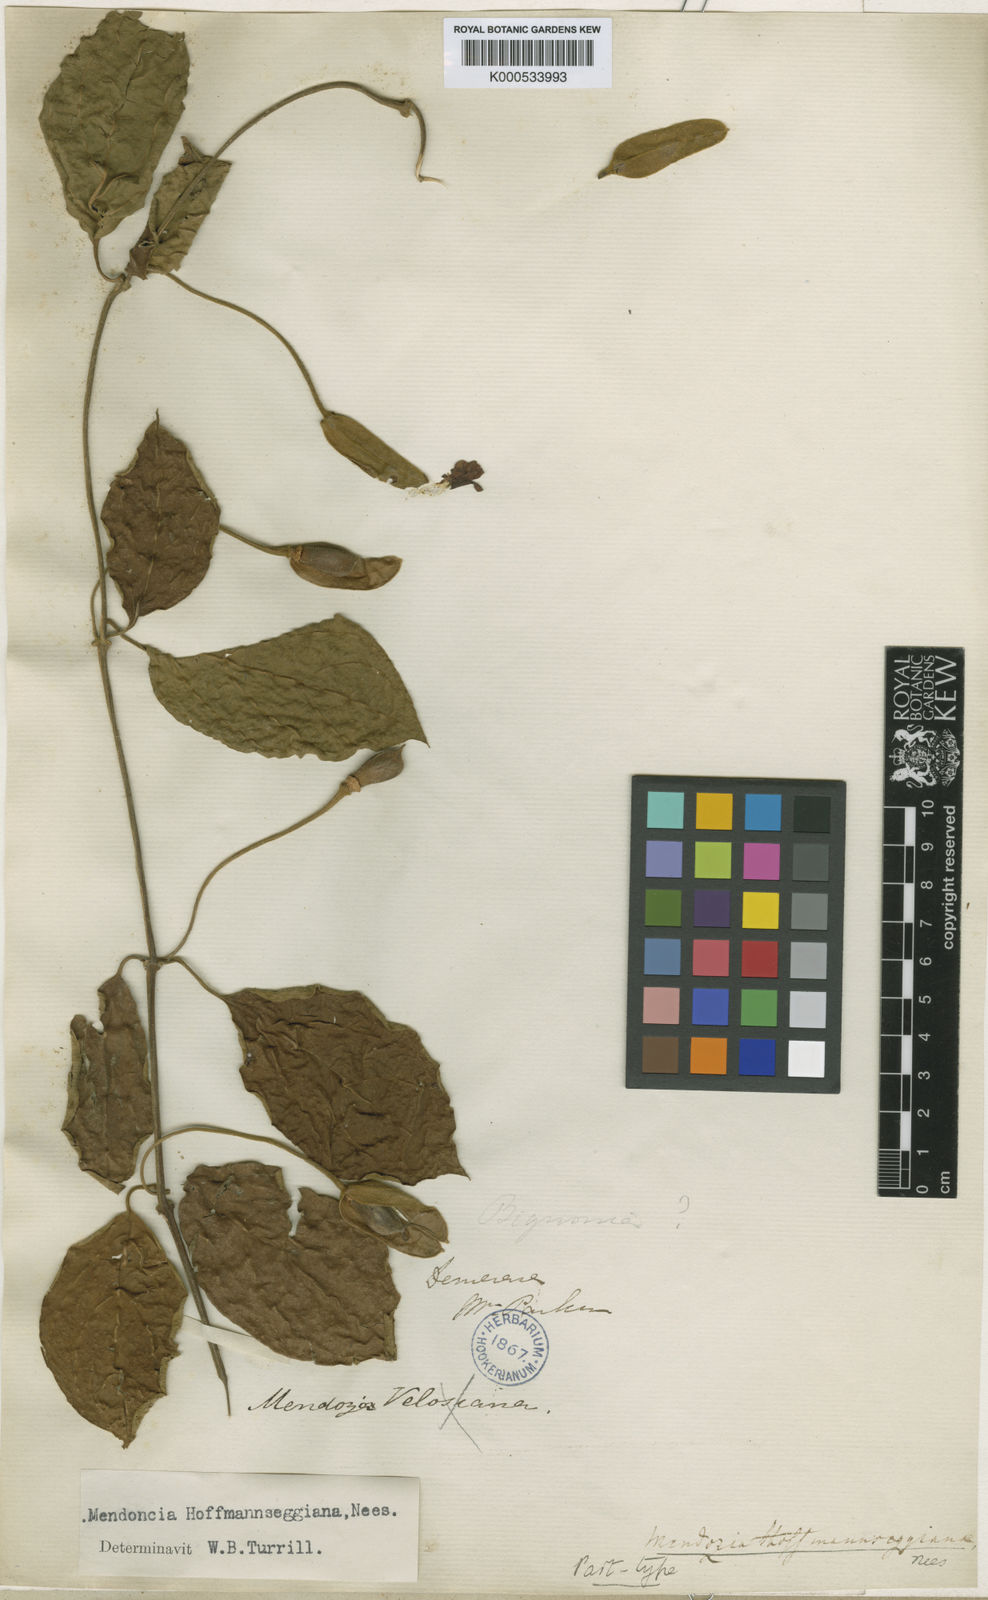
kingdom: Plantae
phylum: Tracheophyta
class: Magnoliopsida
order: Lamiales
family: Acanthaceae
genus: Mendoncia
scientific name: Mendoncia hoffmannseggiana
